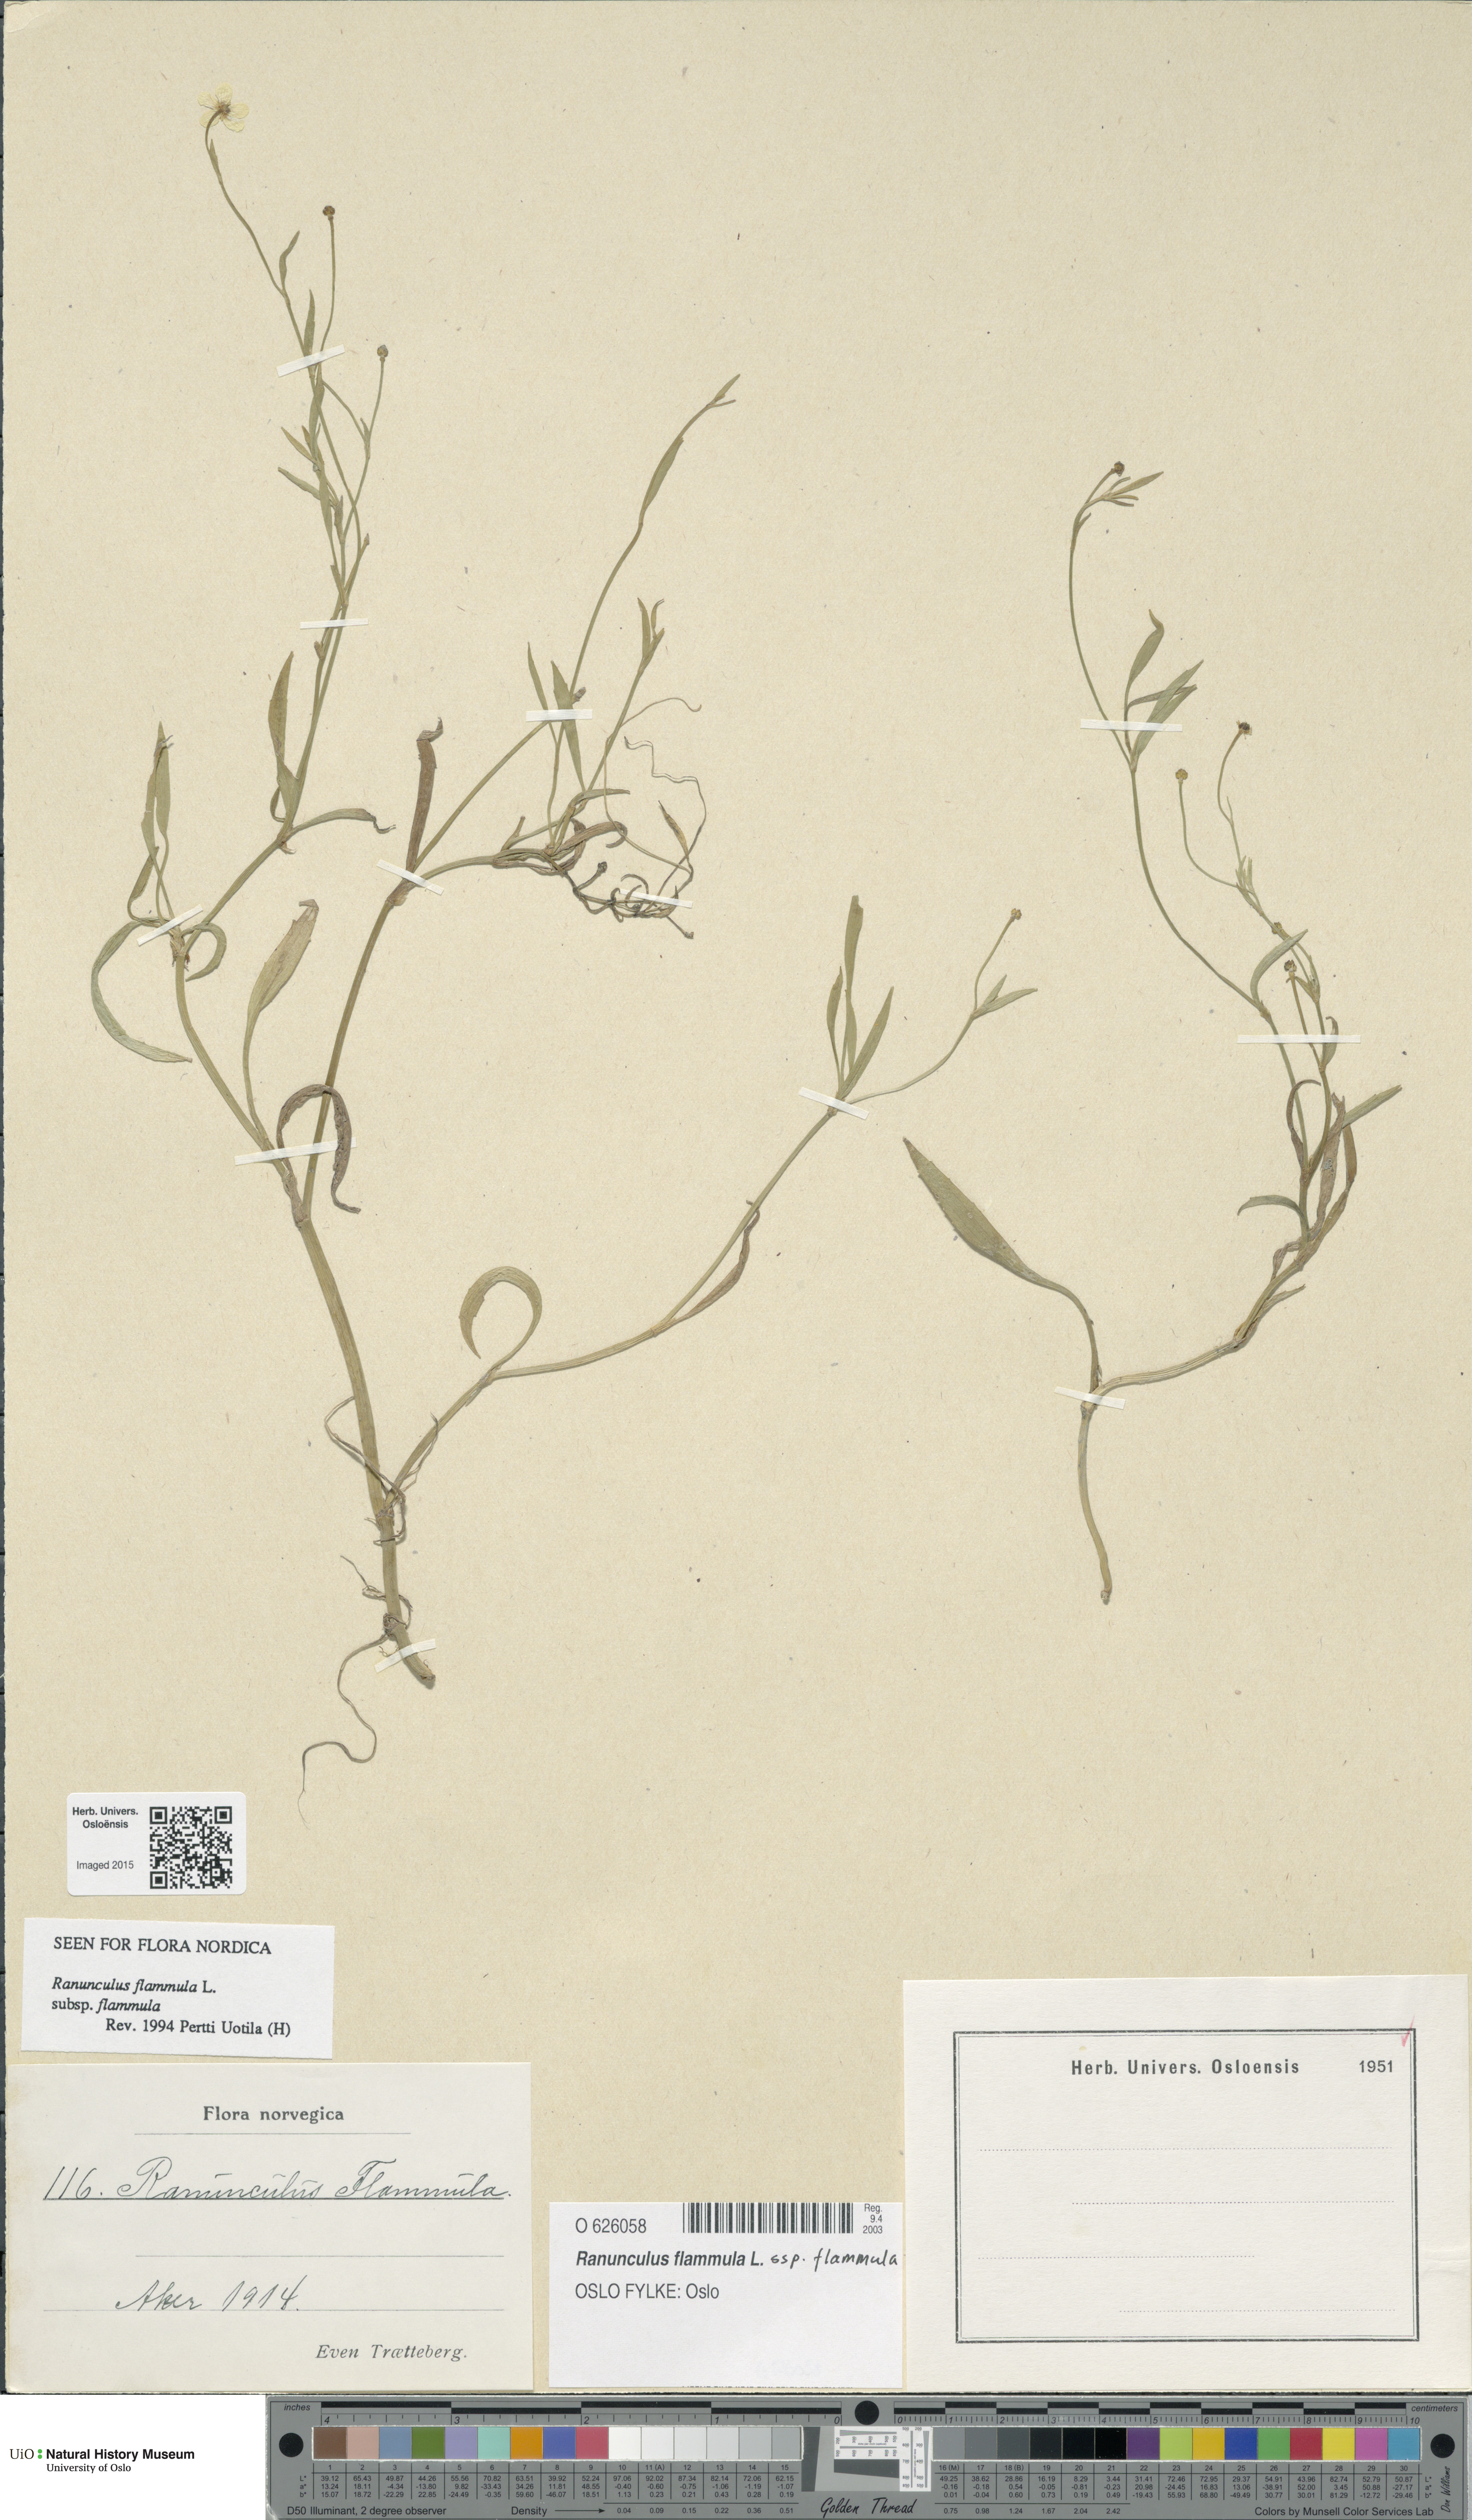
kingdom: Plantae
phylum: Tracheophyta
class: Magnoliopsida
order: Ranunculales
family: Ranunculaceae
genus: Ranunculus
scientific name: Ranunculus flammula
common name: Lesser spearwort
